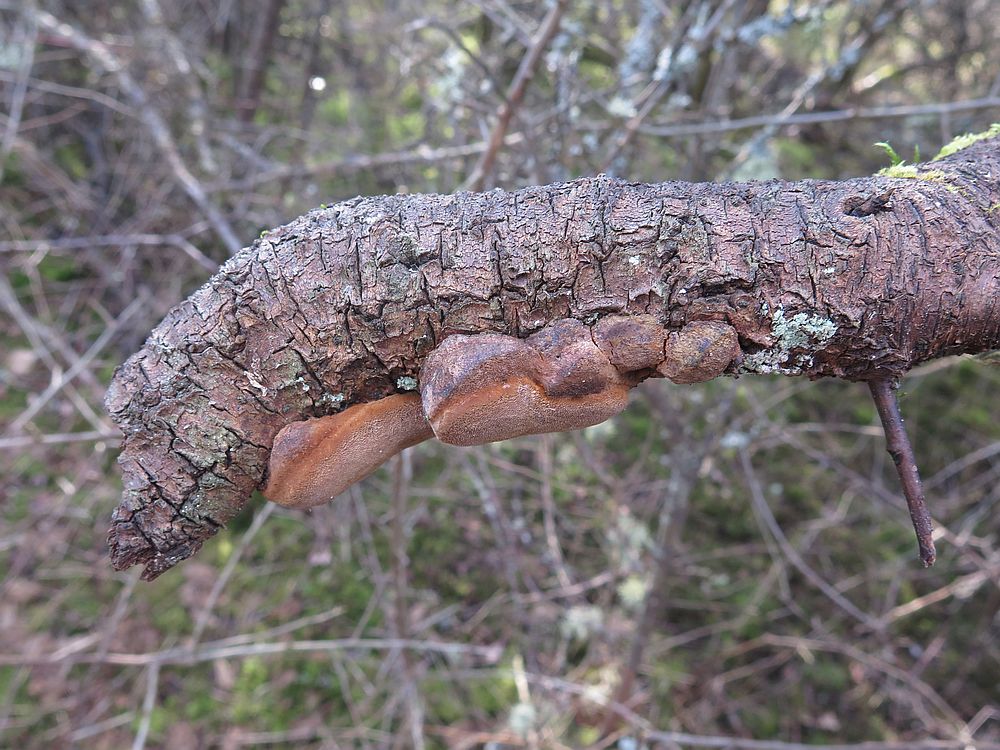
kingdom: Fungi
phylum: Basidiomycota
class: Agaricomycetes
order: Hymenochaetales
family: Hymenochaetaceae
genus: Phellinus
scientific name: Phellinus pomaceus
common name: blomme-ildporesvamp
